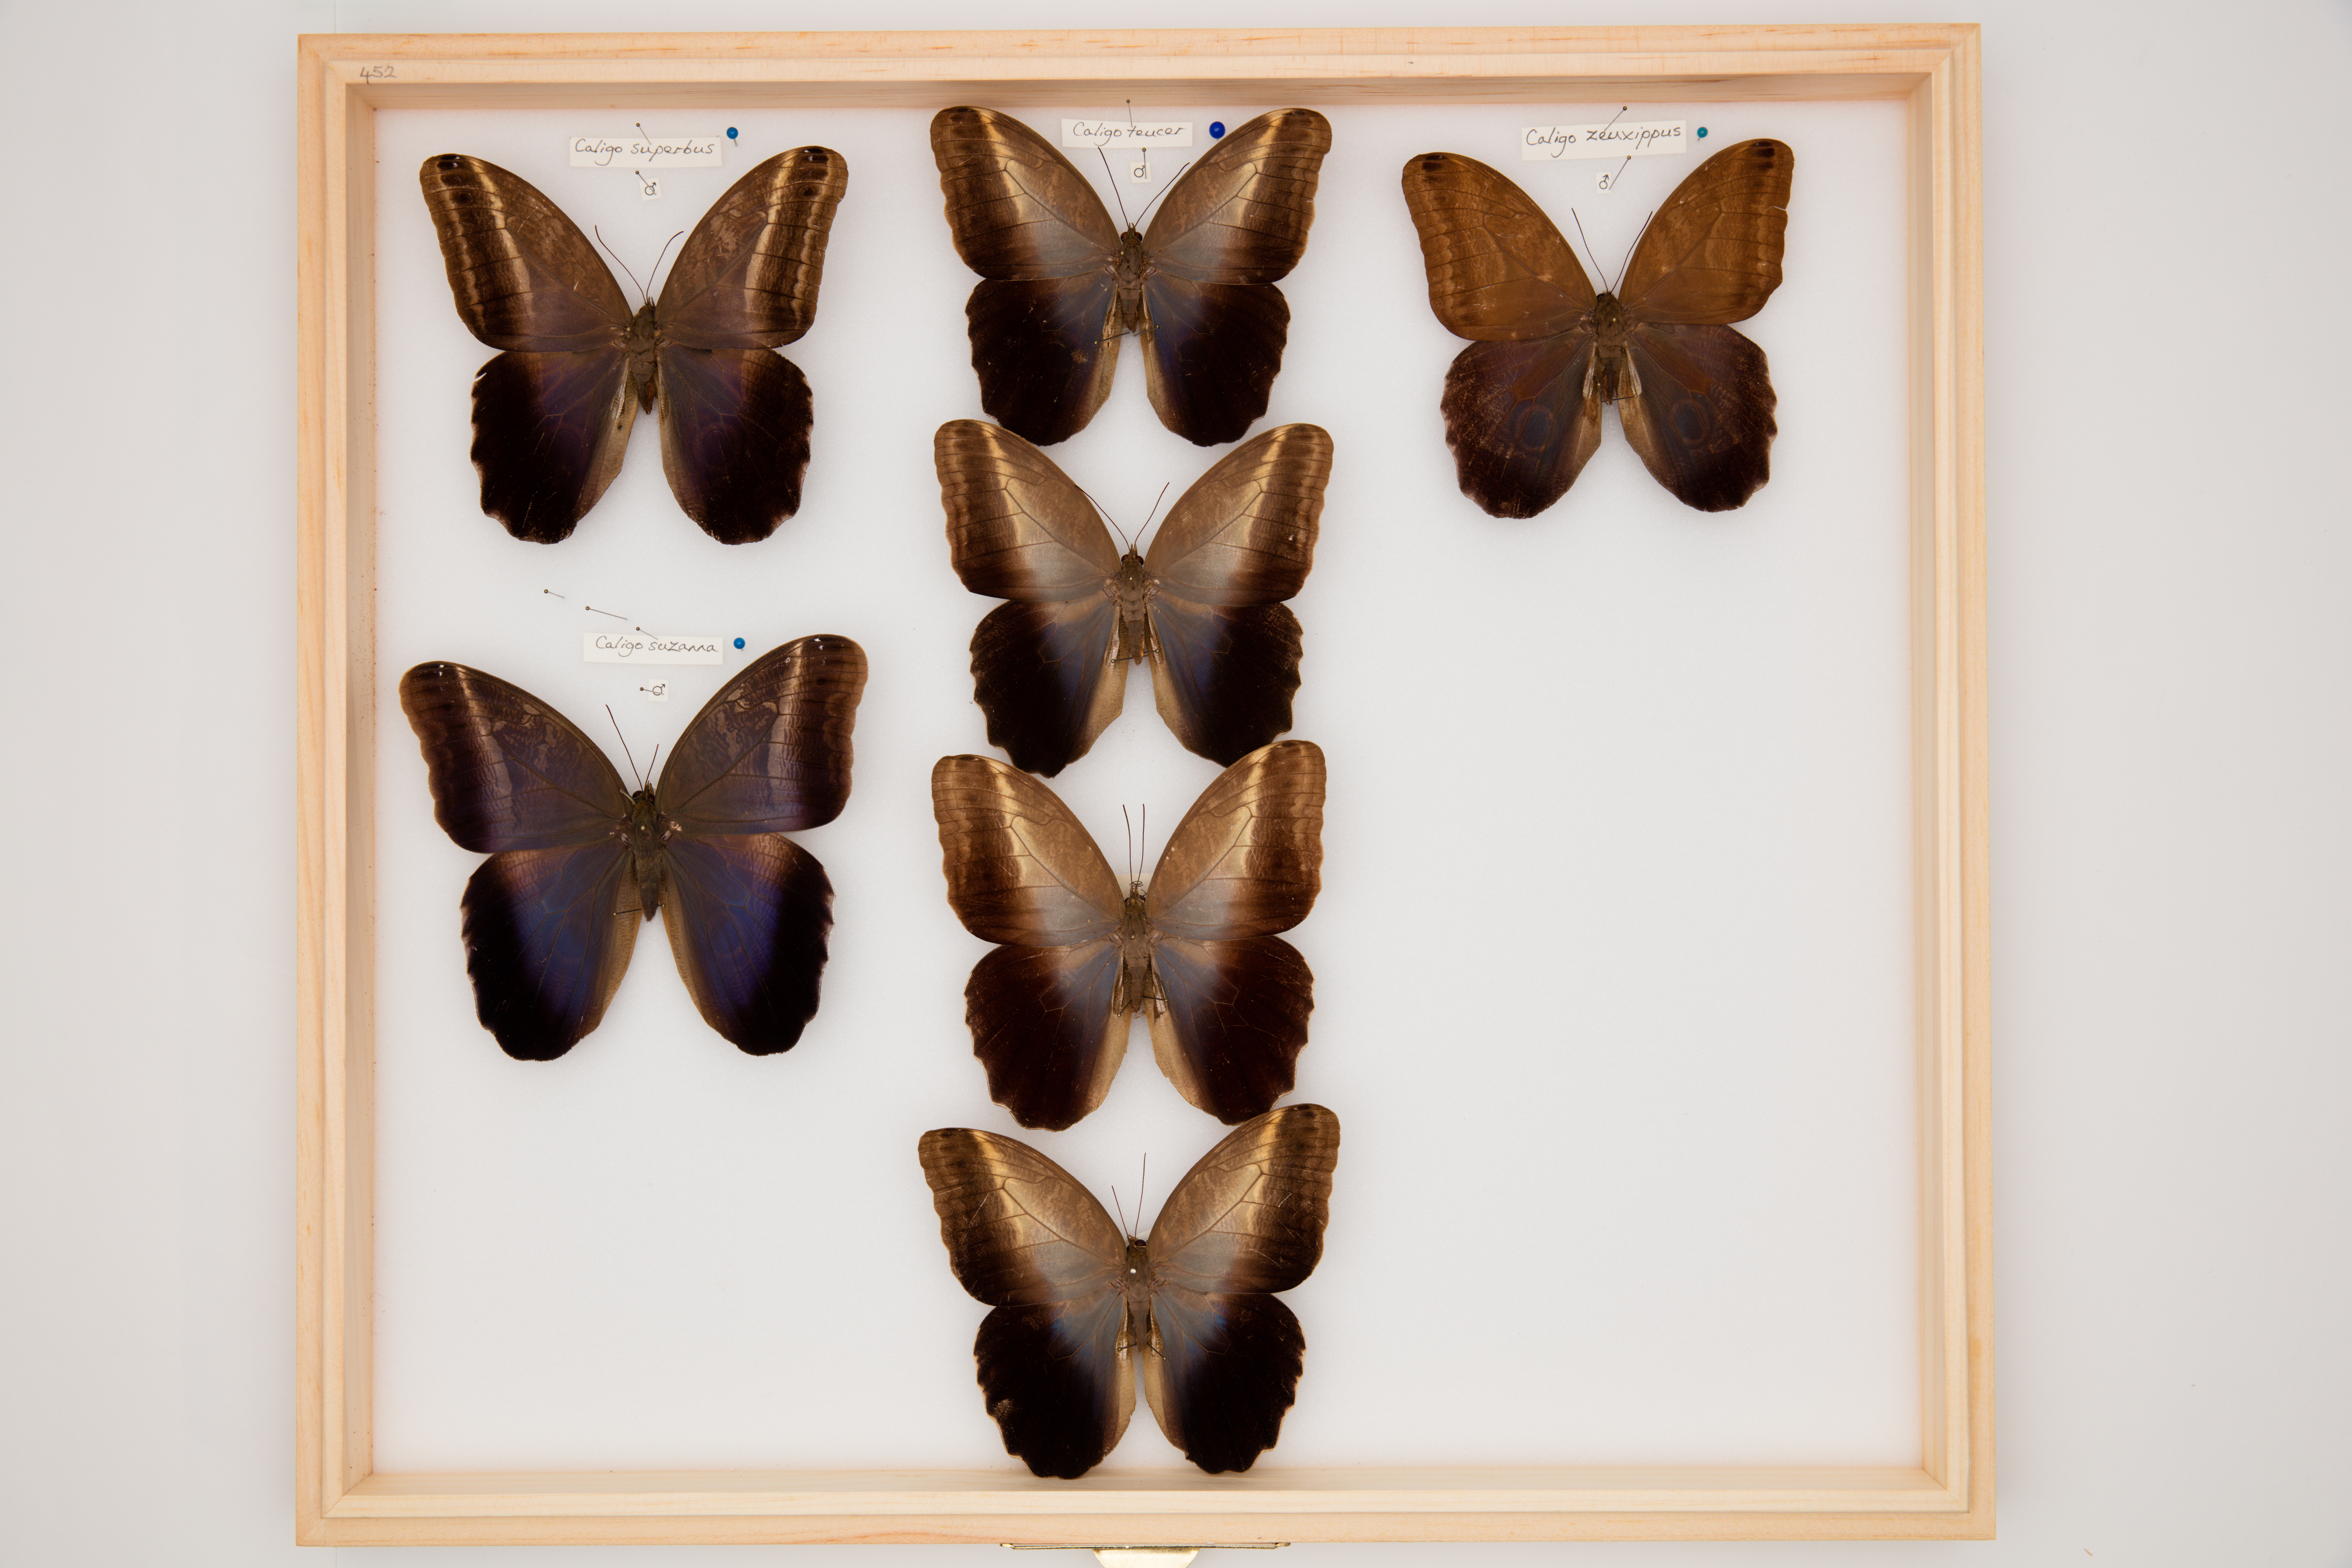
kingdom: Animalia
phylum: Arthropoda
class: Insecta
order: Lepidoptera
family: Nymphalidae
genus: Caligo
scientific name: Caligo teucer
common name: Teucer owl butterfly
